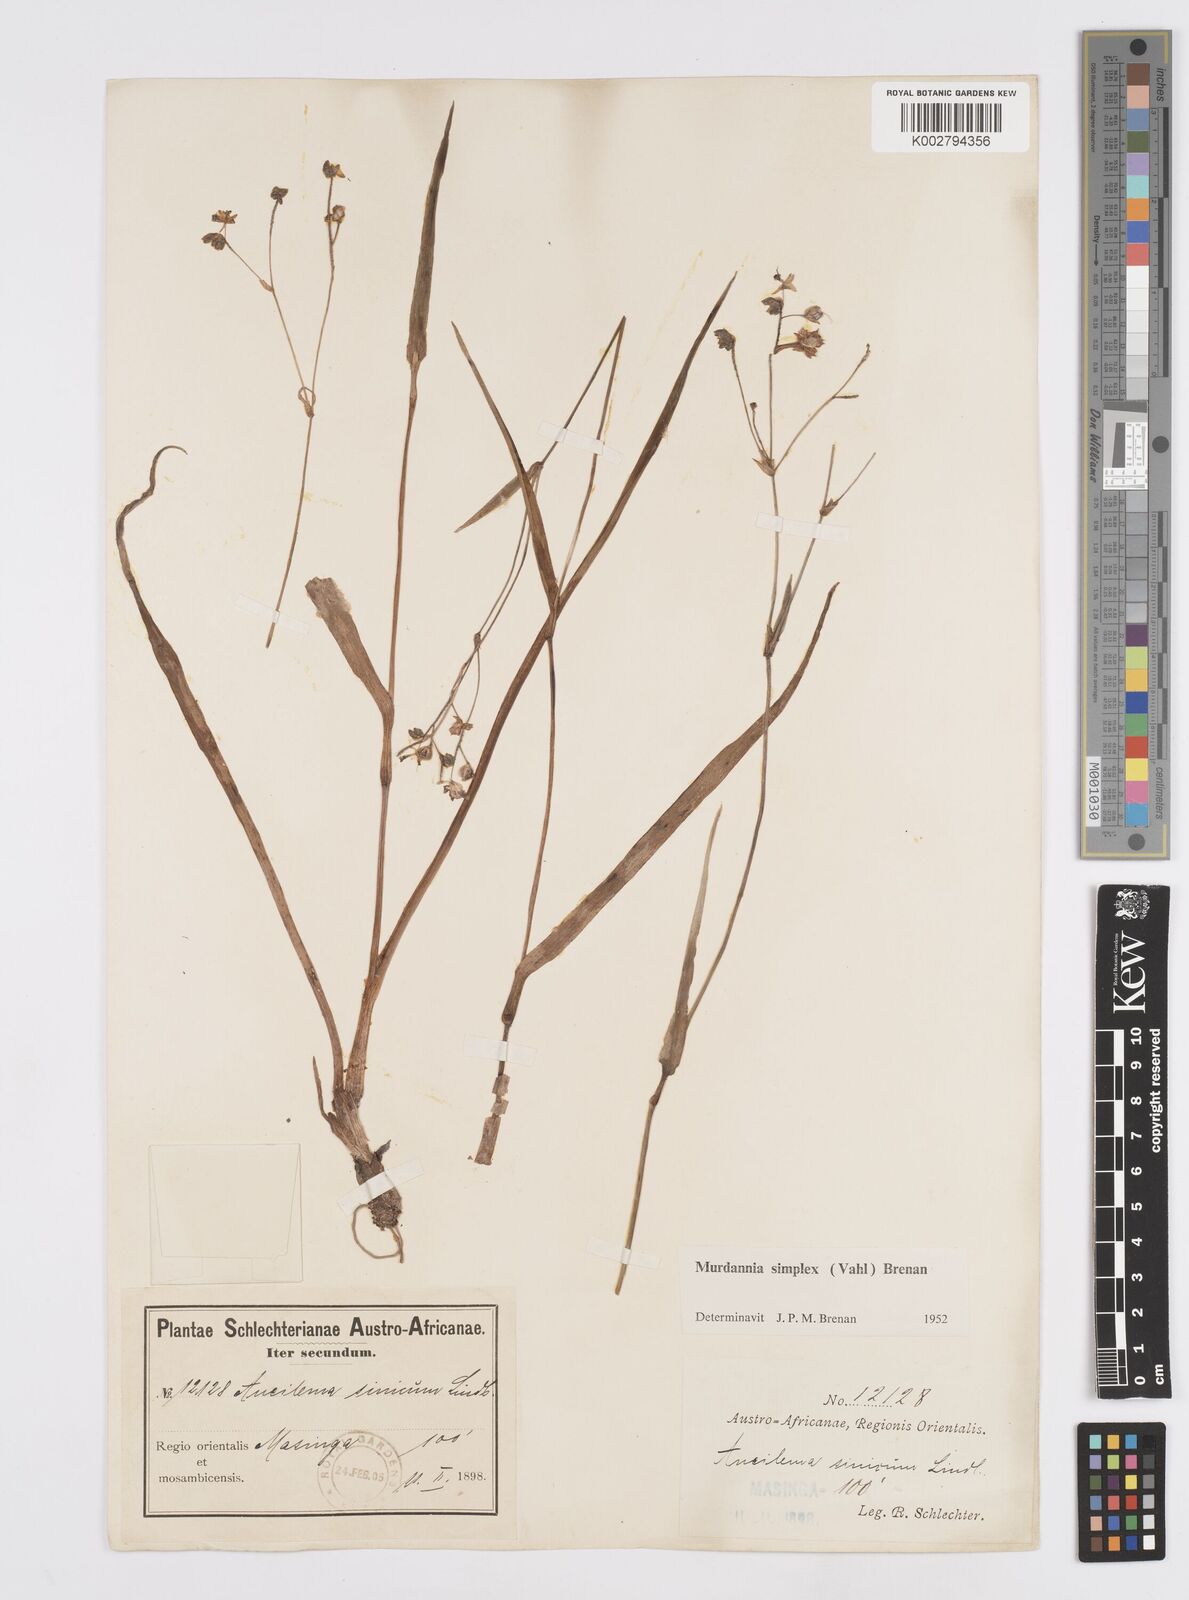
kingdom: Plantae
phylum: Tracheophyta
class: Liliopsida
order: Commelinales
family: Commelinaceae
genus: Murdannia
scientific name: Murdannia simplex
